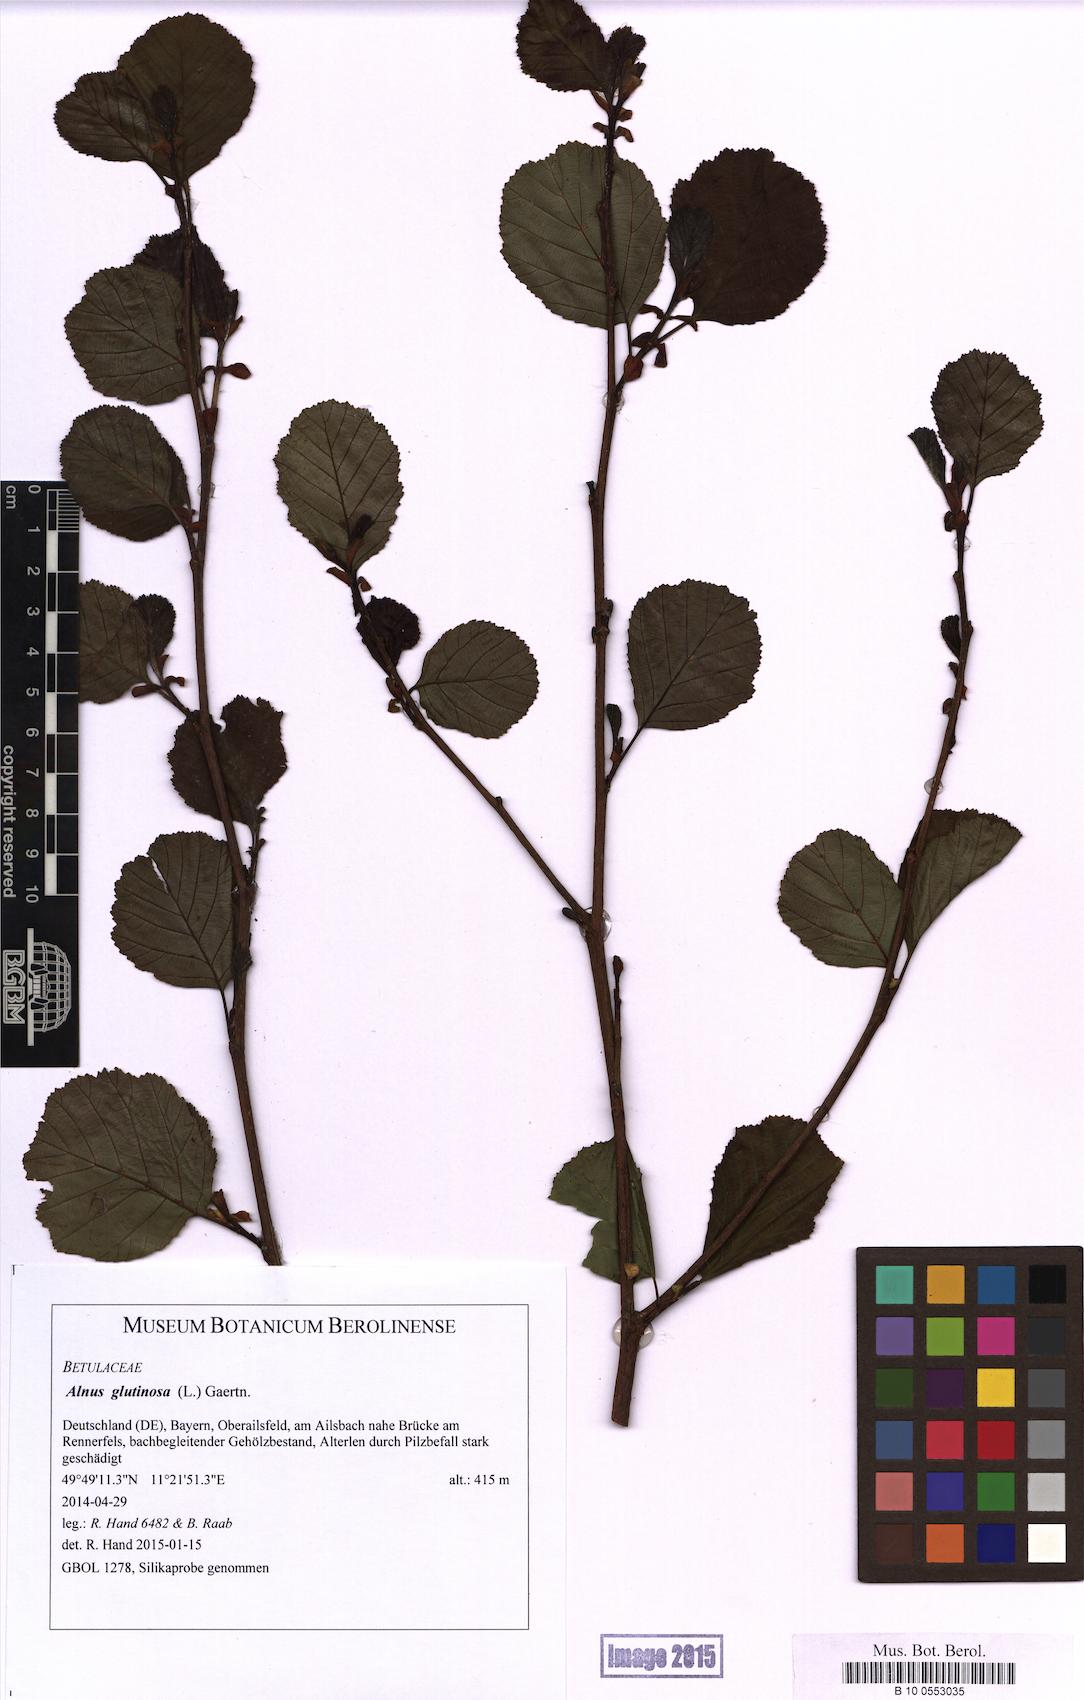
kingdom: Plantae
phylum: Tracheophyta
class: Magnoliopsida
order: Fagales
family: Betulaceae
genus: Alnus
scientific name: Alnus glutinosa
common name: Black alder
